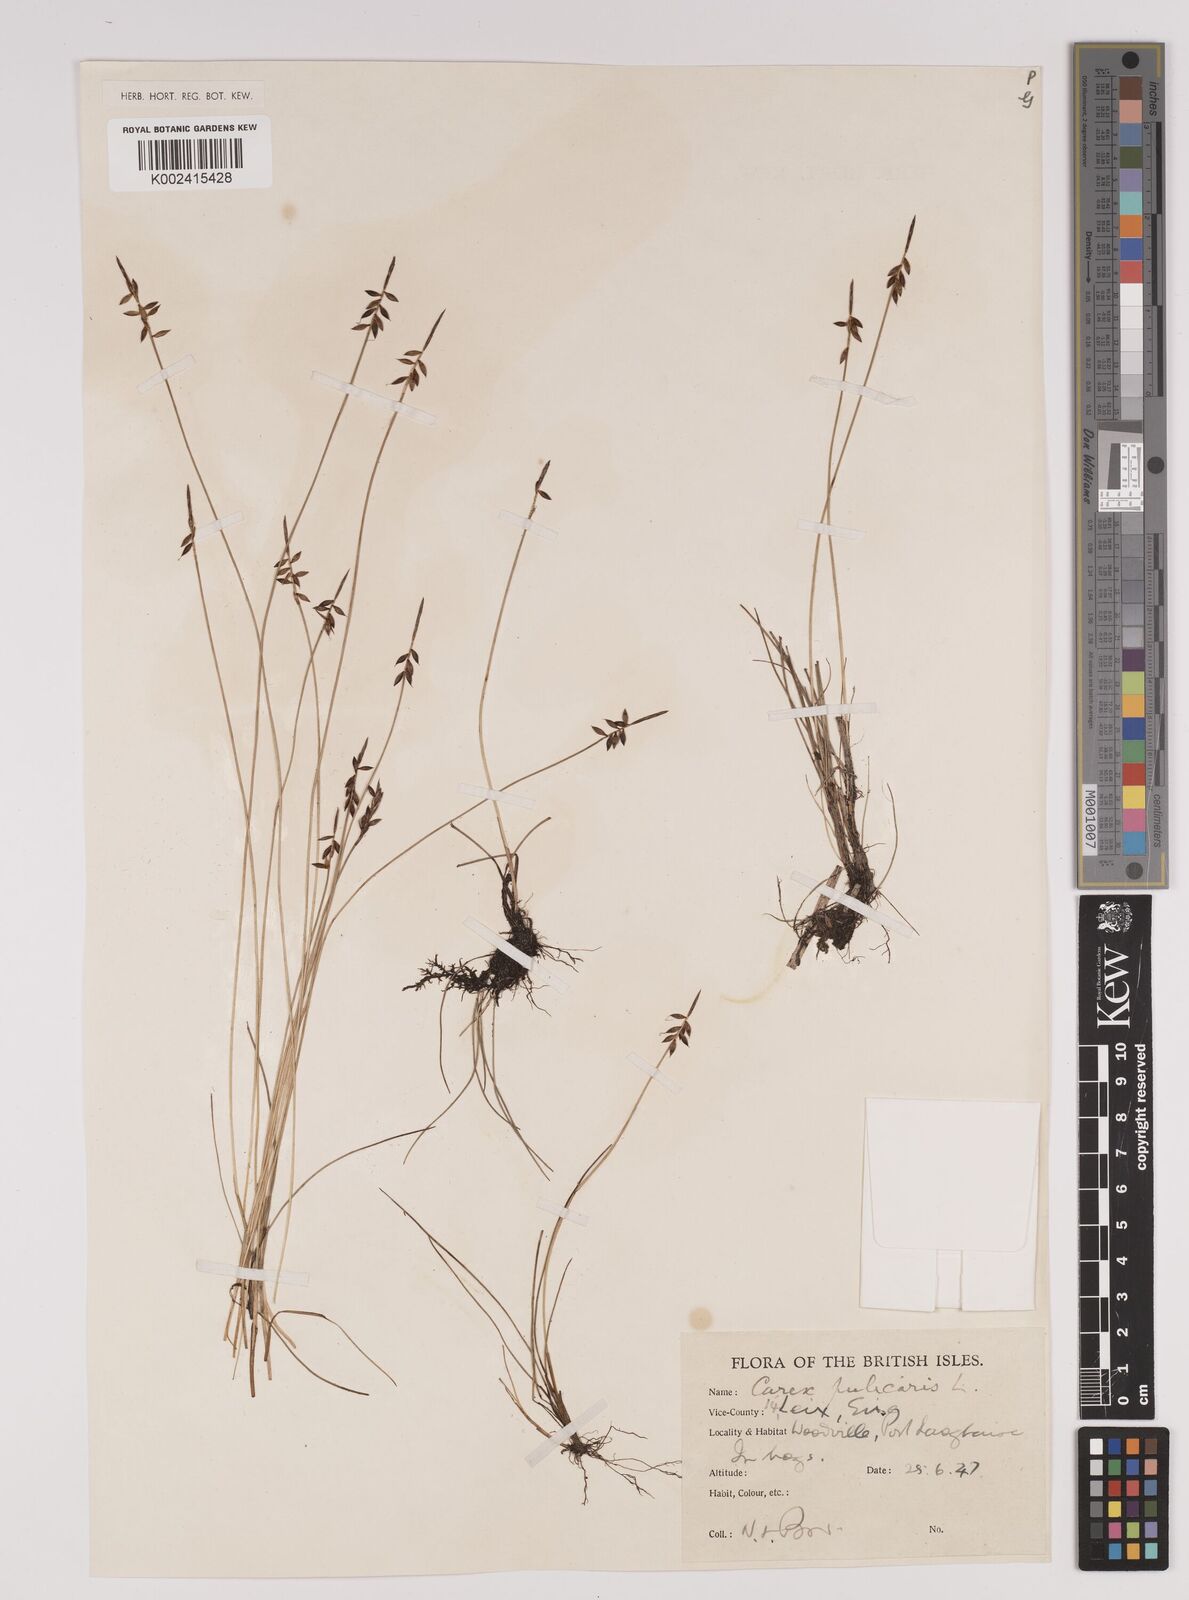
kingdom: Plantae
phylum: Tracheophyta
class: Liliopsida
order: Poales
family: Cyperaceae
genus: Carex
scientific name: Carex pulicaris
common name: Flea sedge
